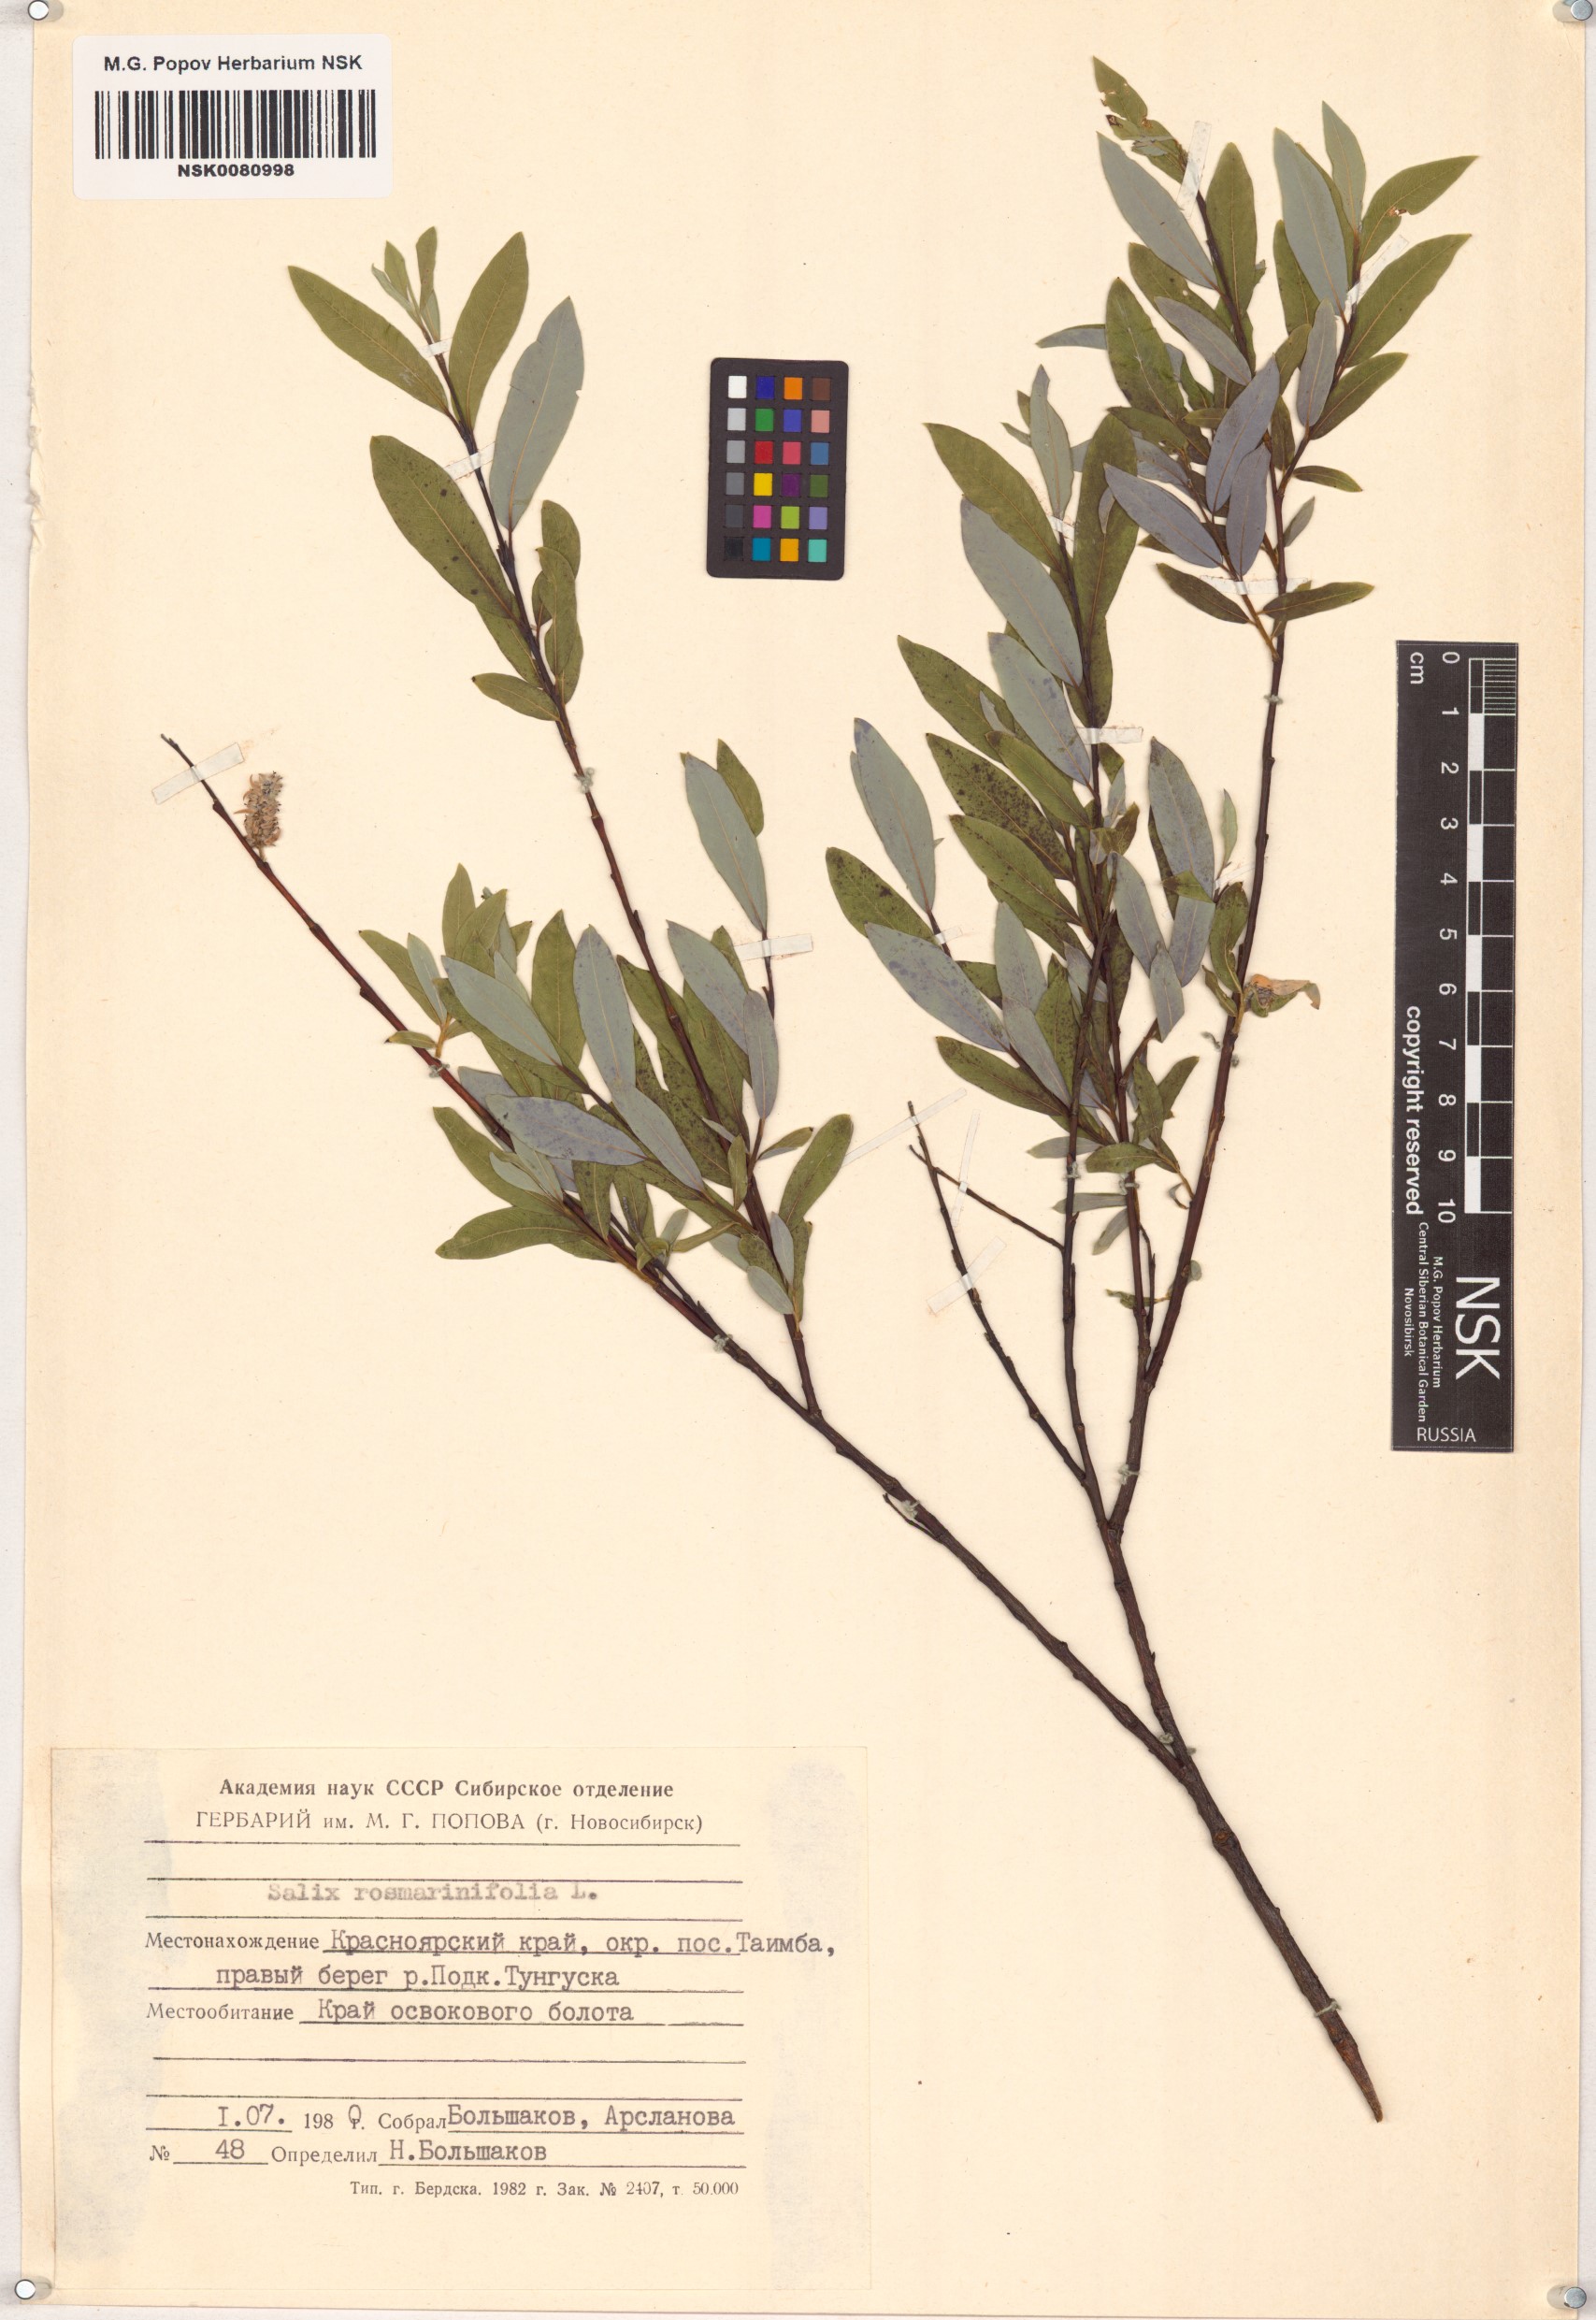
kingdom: Plantae
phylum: Tracheophyta
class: Magnoliopsida
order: Malpighiales
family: Salicaceae
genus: Salix
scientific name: Salix rosmarinifolia
